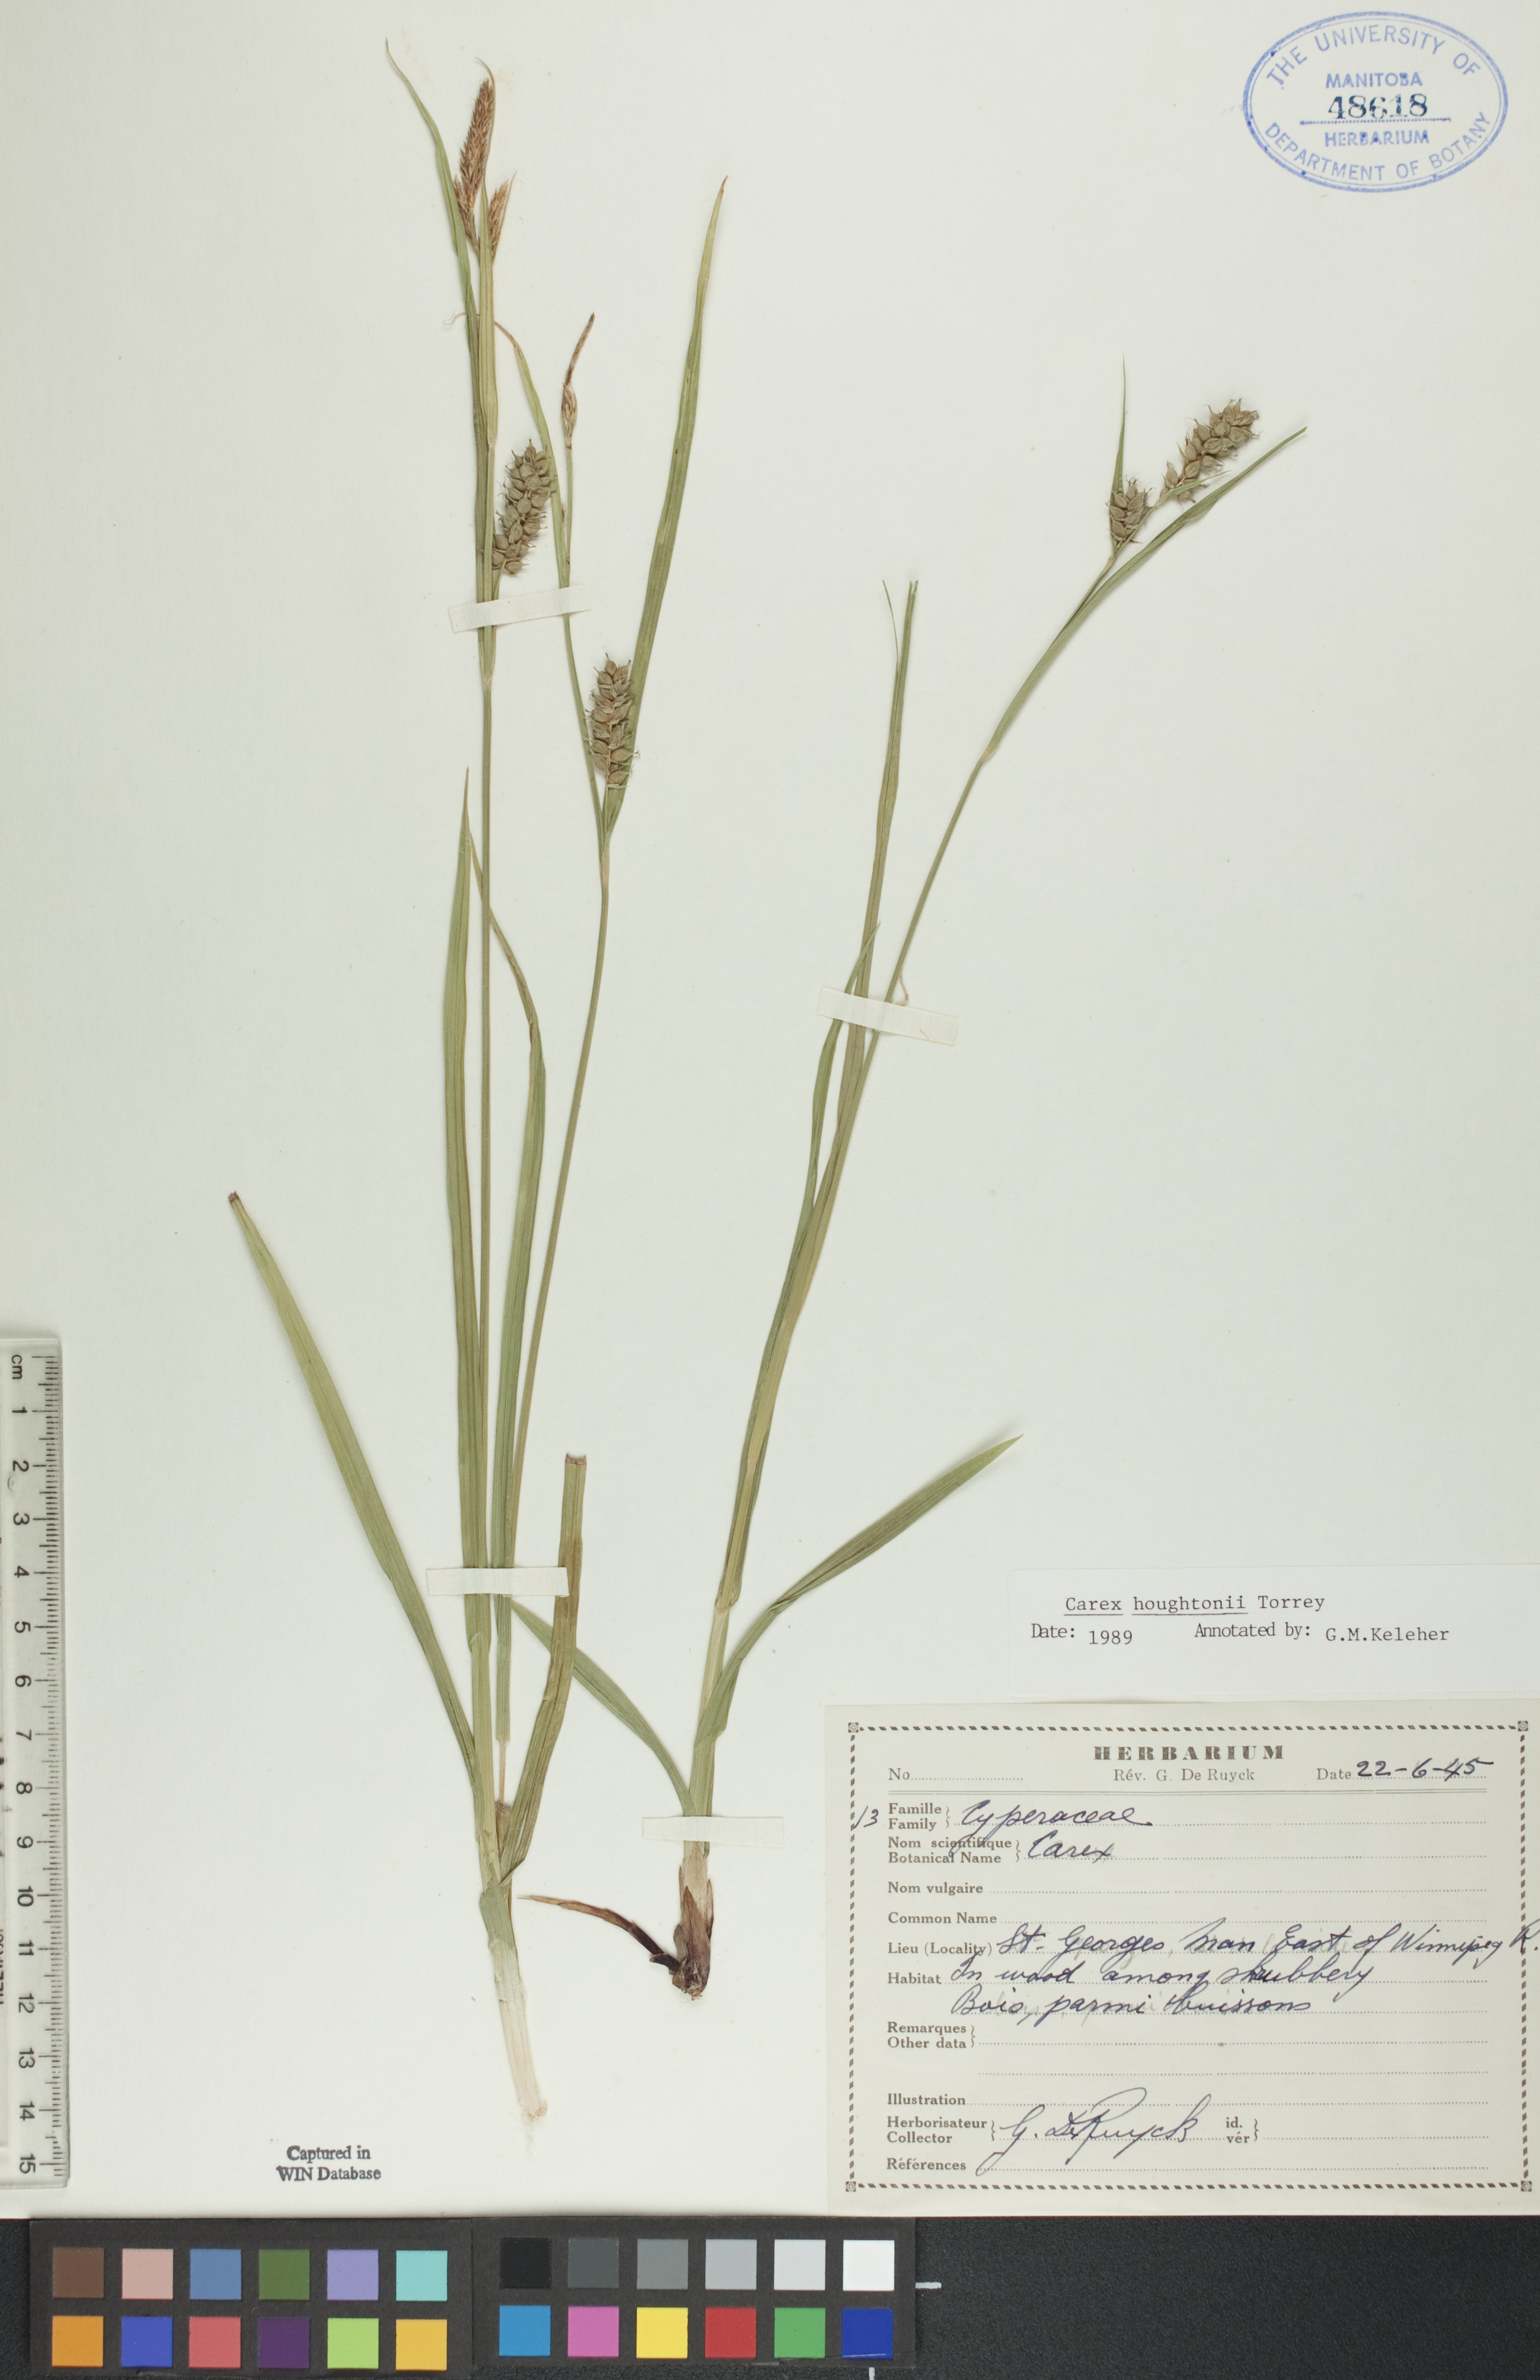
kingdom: Plantae
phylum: Tracheophyta
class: Liliopsida
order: Poales
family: Cyperaceae
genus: Carex
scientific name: Carex houghtoniana
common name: Houghton's sedge
